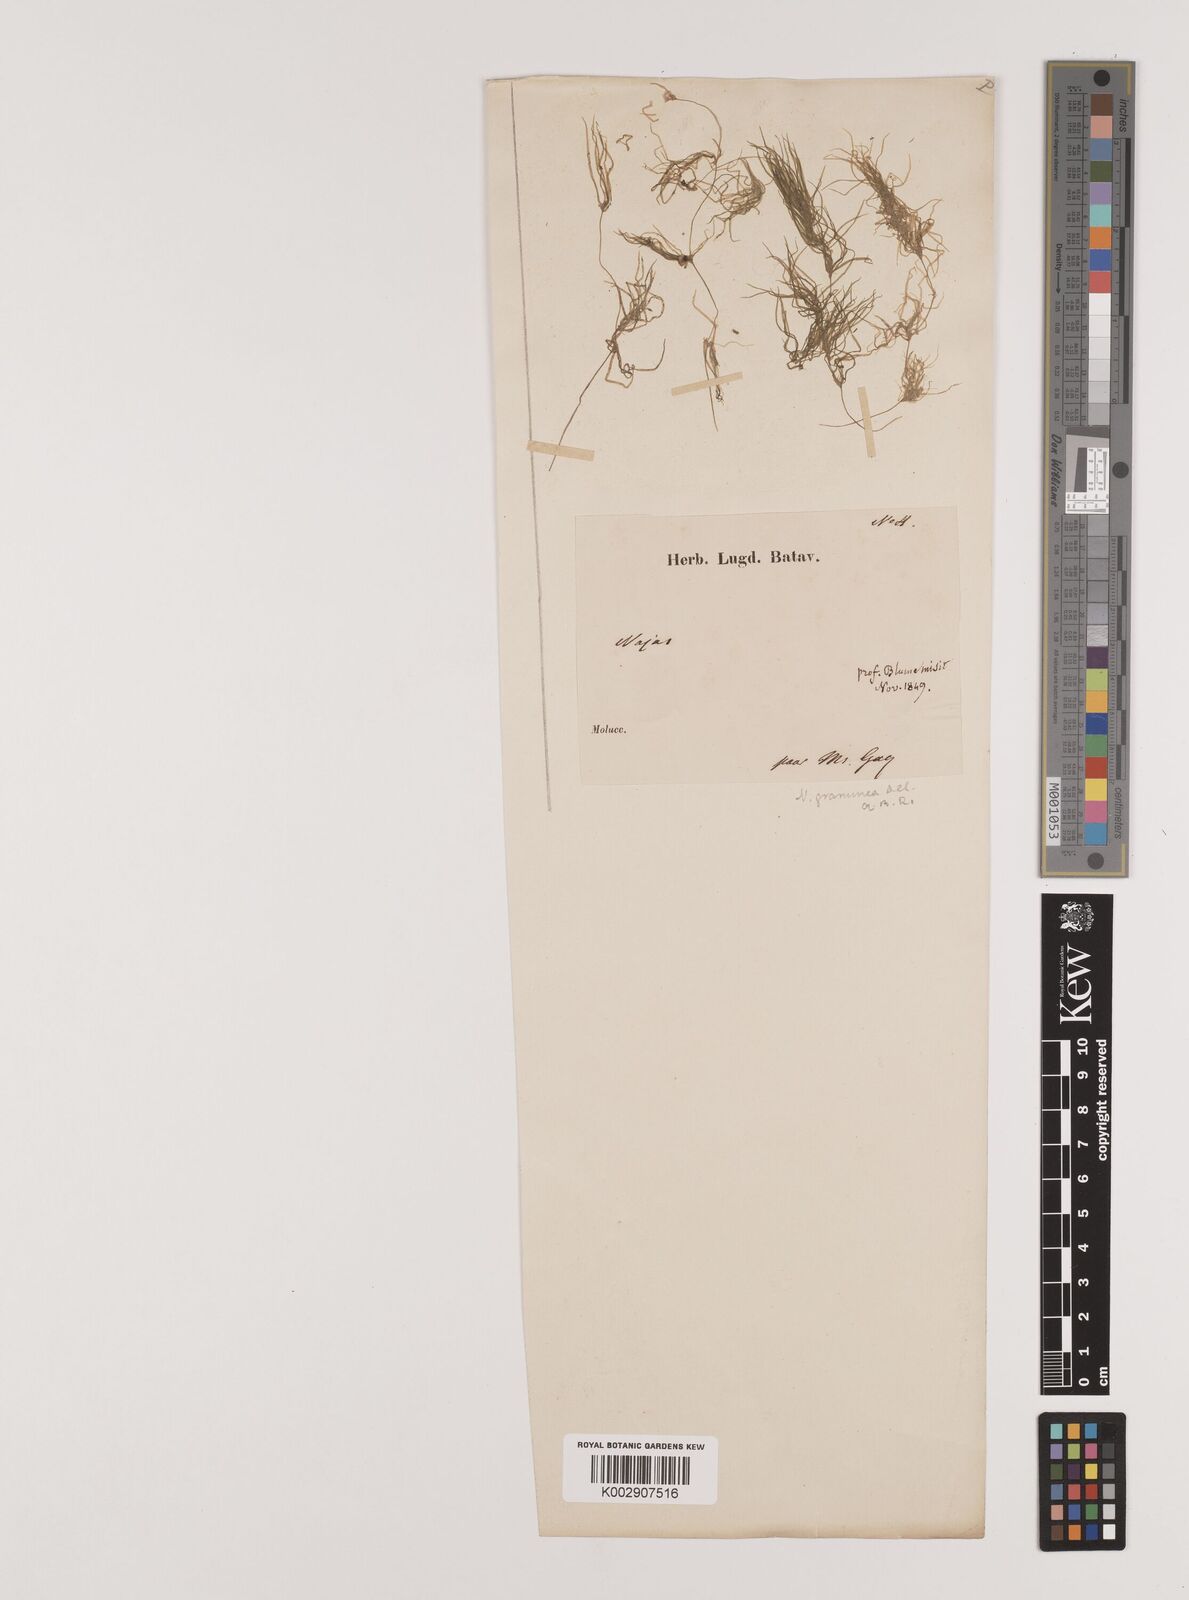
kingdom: Plantae
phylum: Tracheophyta
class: Liliopsida
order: Alismatales
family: Hydrocharitaceae
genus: Najas
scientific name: Najas graminea
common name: Ricefield waternymph
